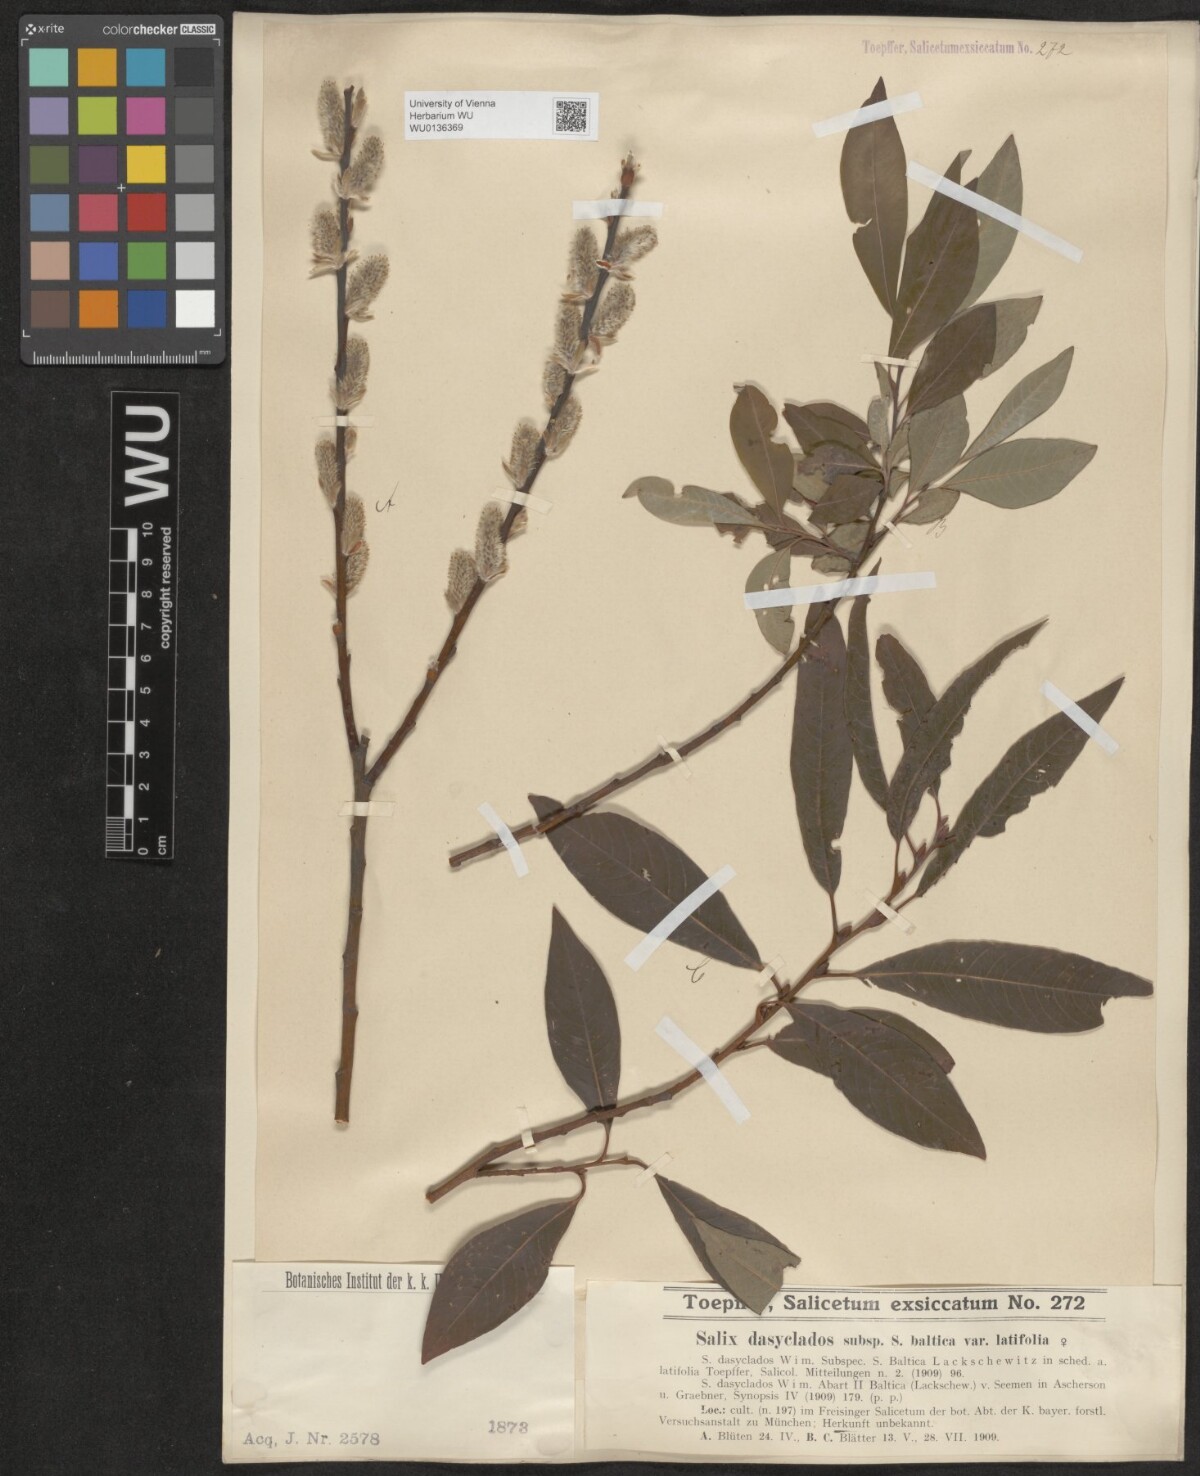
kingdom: Plantae
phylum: Tracheophyta
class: Magnoliopsida
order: Malpighiales
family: Salicaceae
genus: Salix
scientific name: Salix gmelinii
